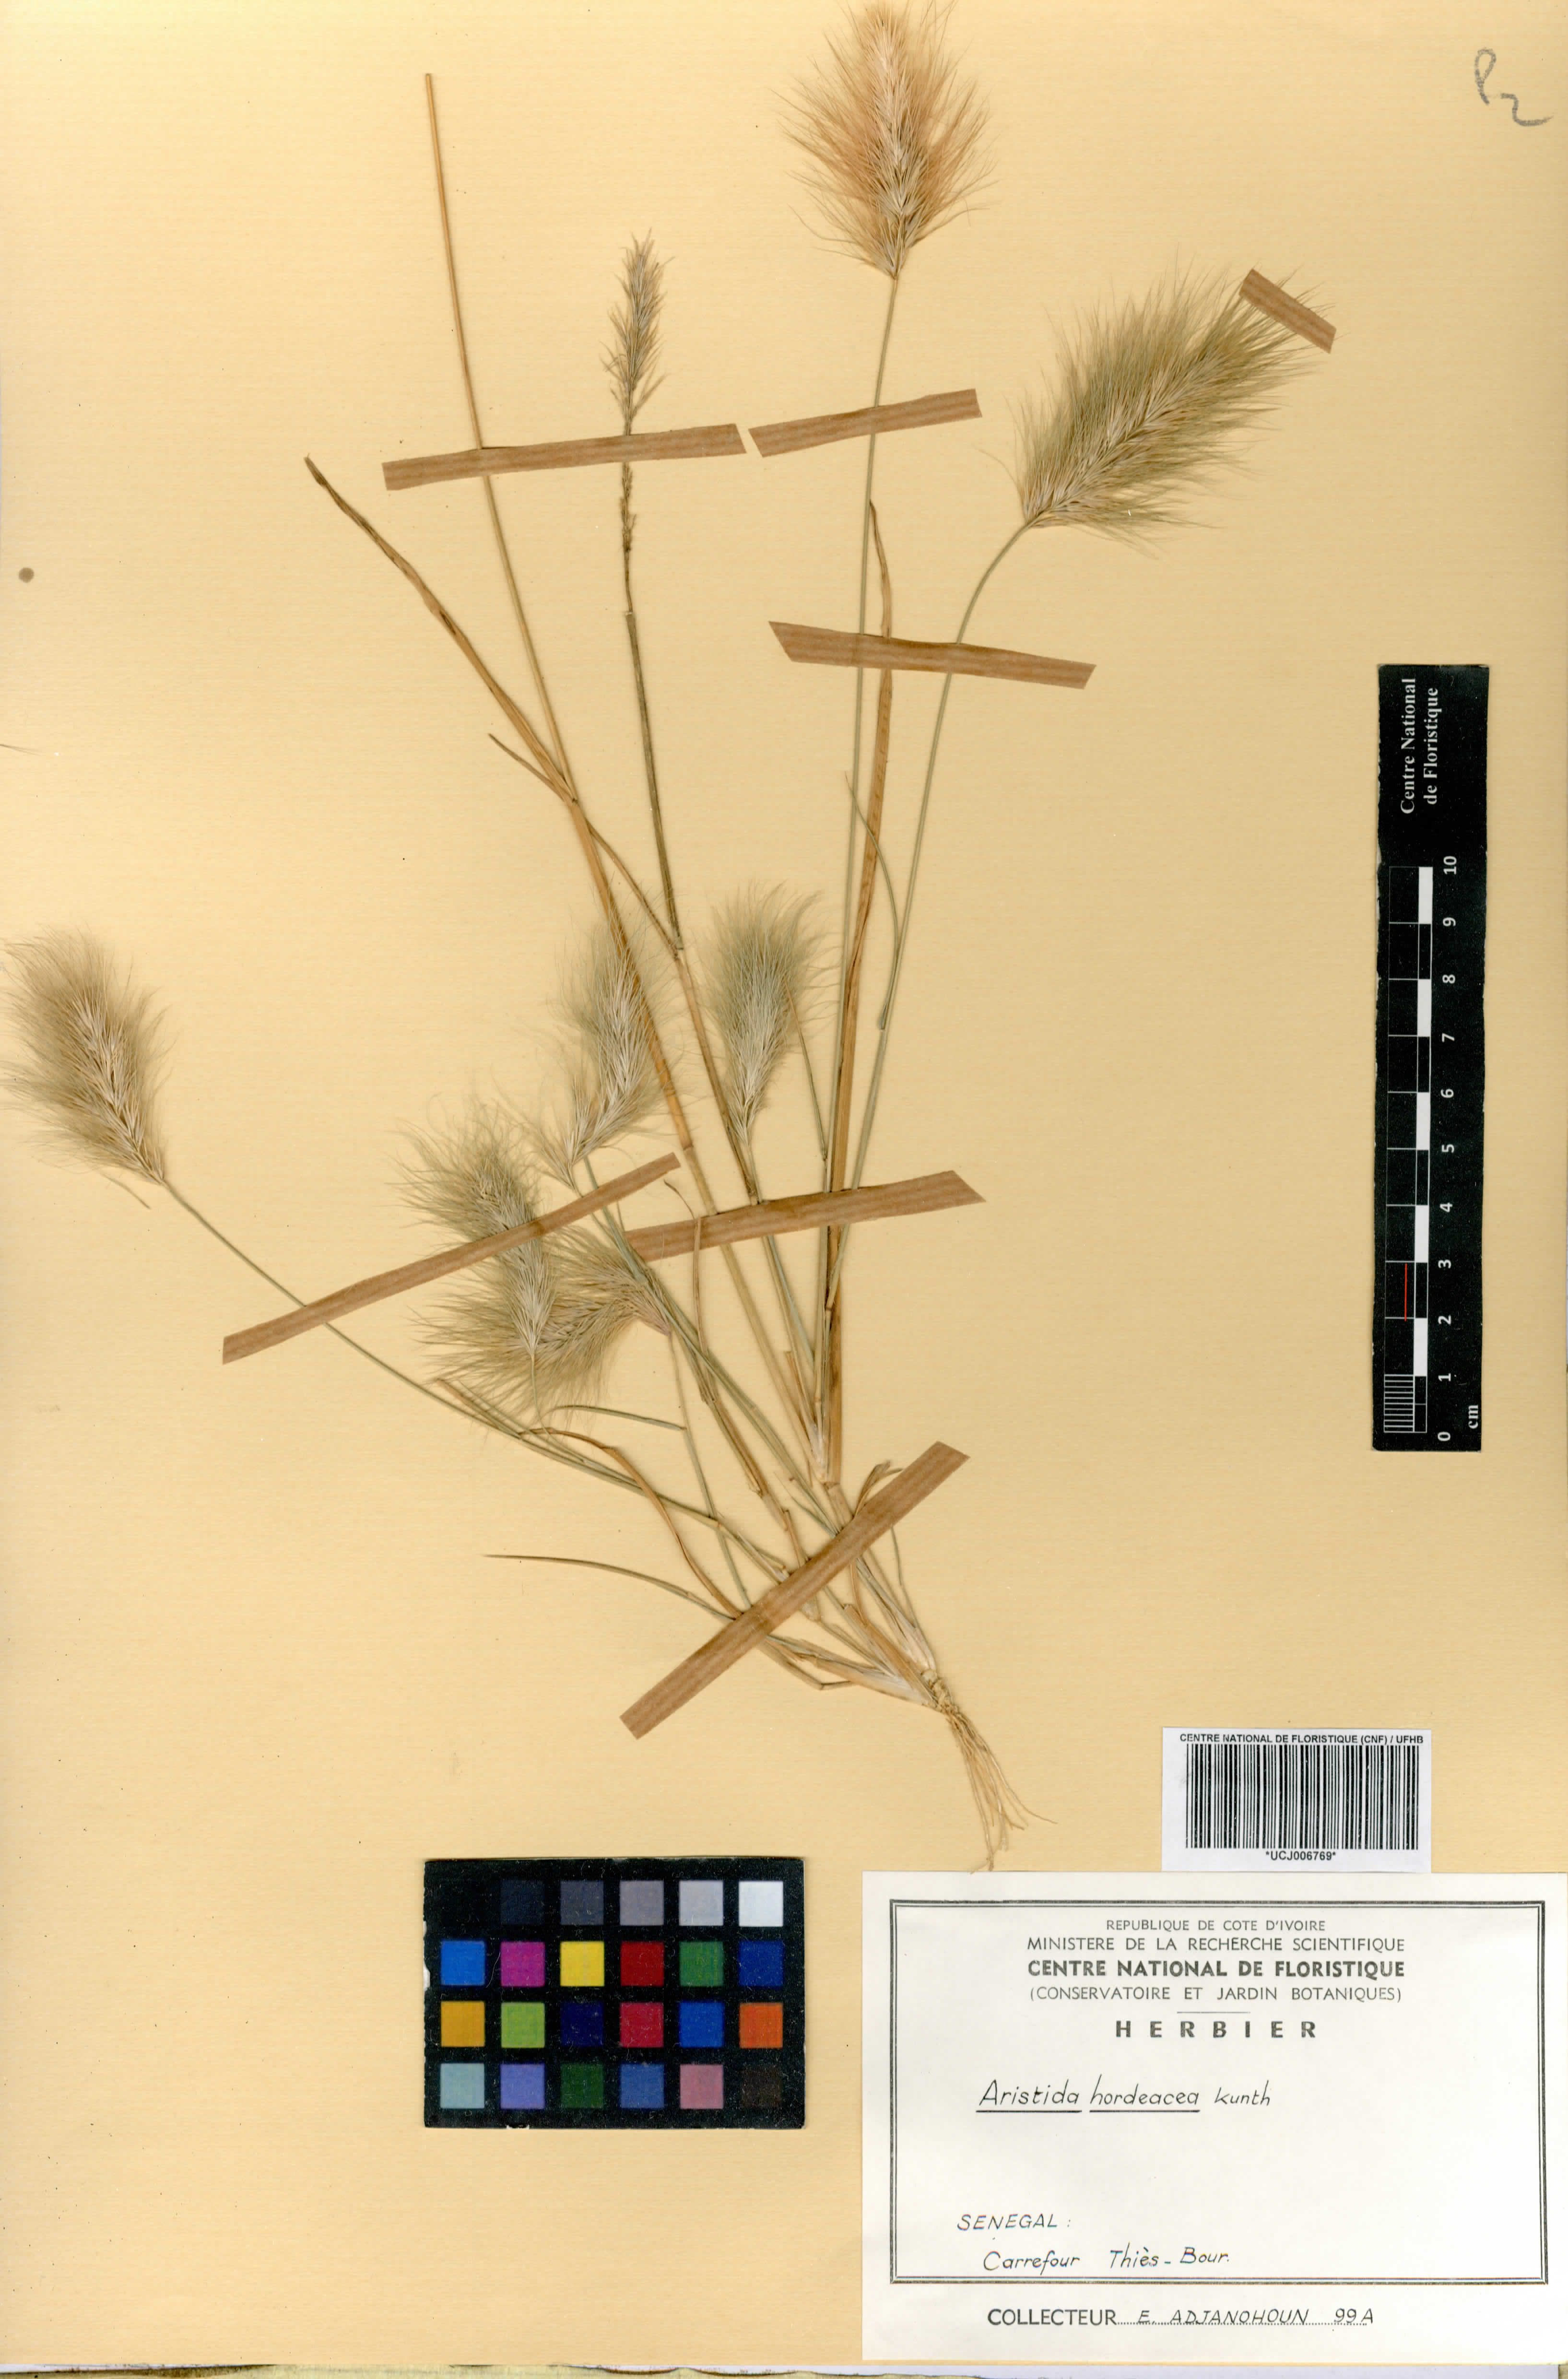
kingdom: Plantae
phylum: Tracheophyta
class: Liliopsida
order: Poales
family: Poaceae
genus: Aristida
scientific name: Aristida hordeacea
